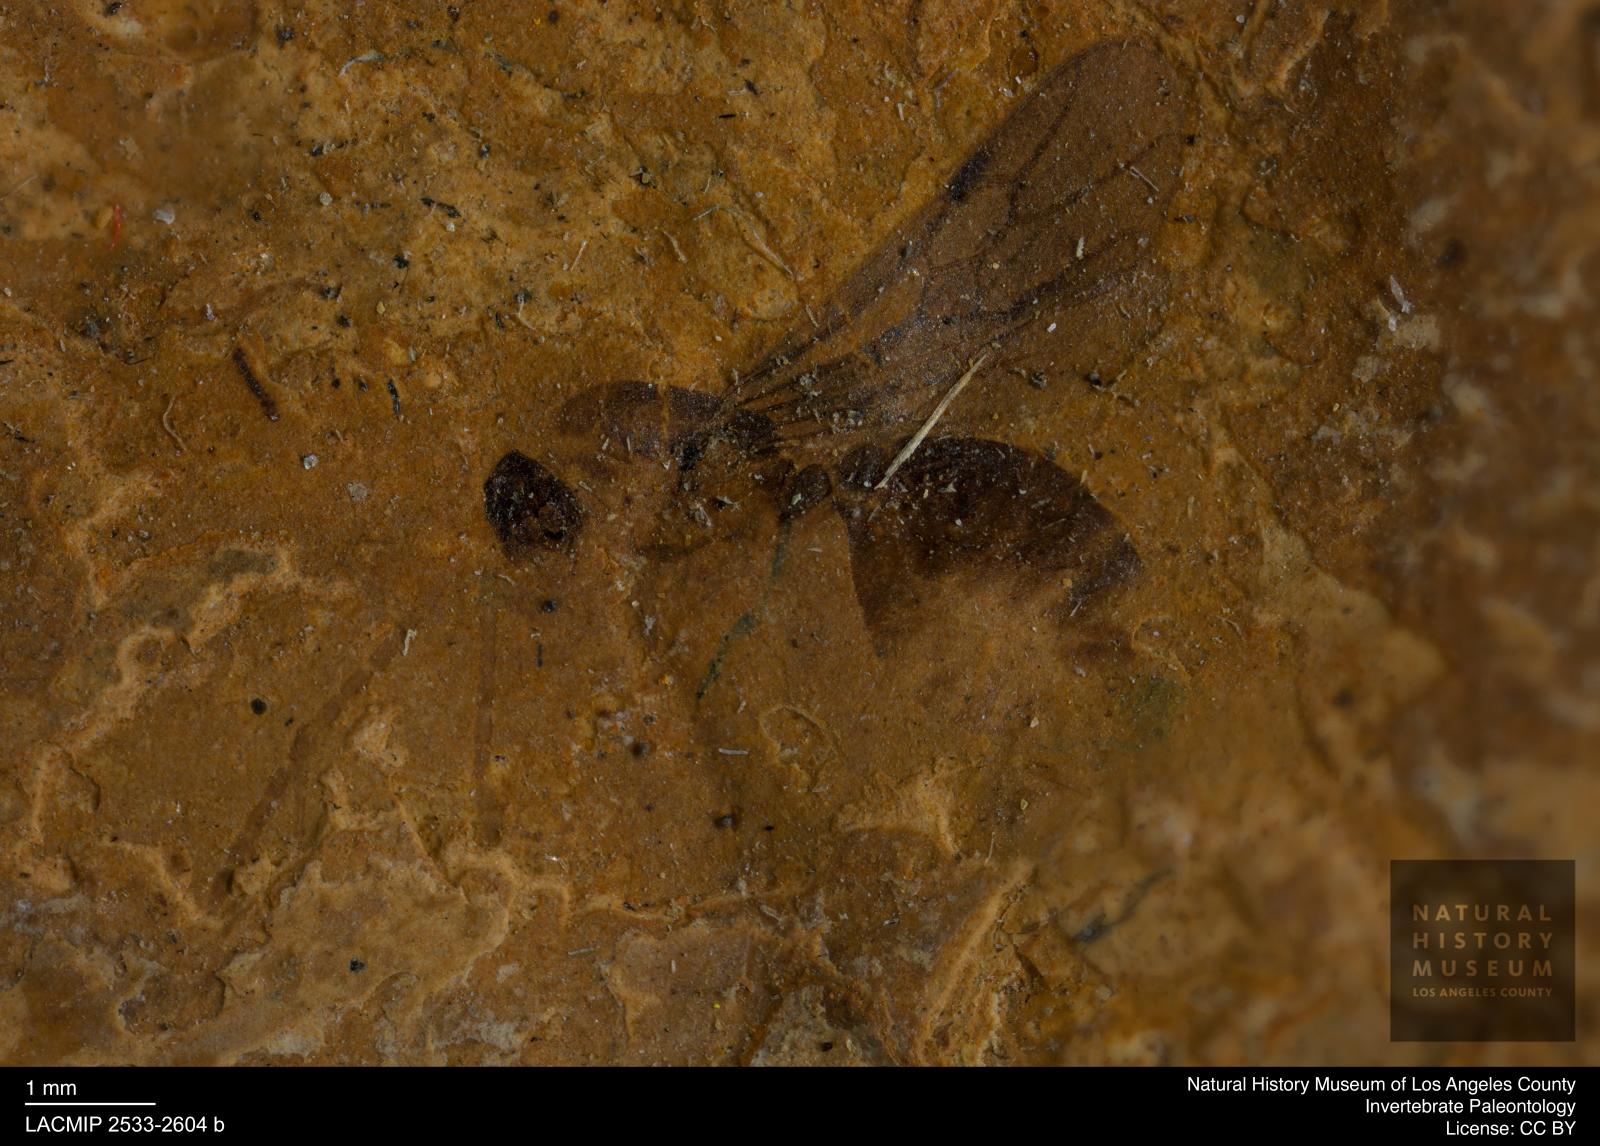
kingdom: Animalia
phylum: Arthropoda
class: Insecta
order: Hymenoptera
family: Formicidae
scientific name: Formicidae
